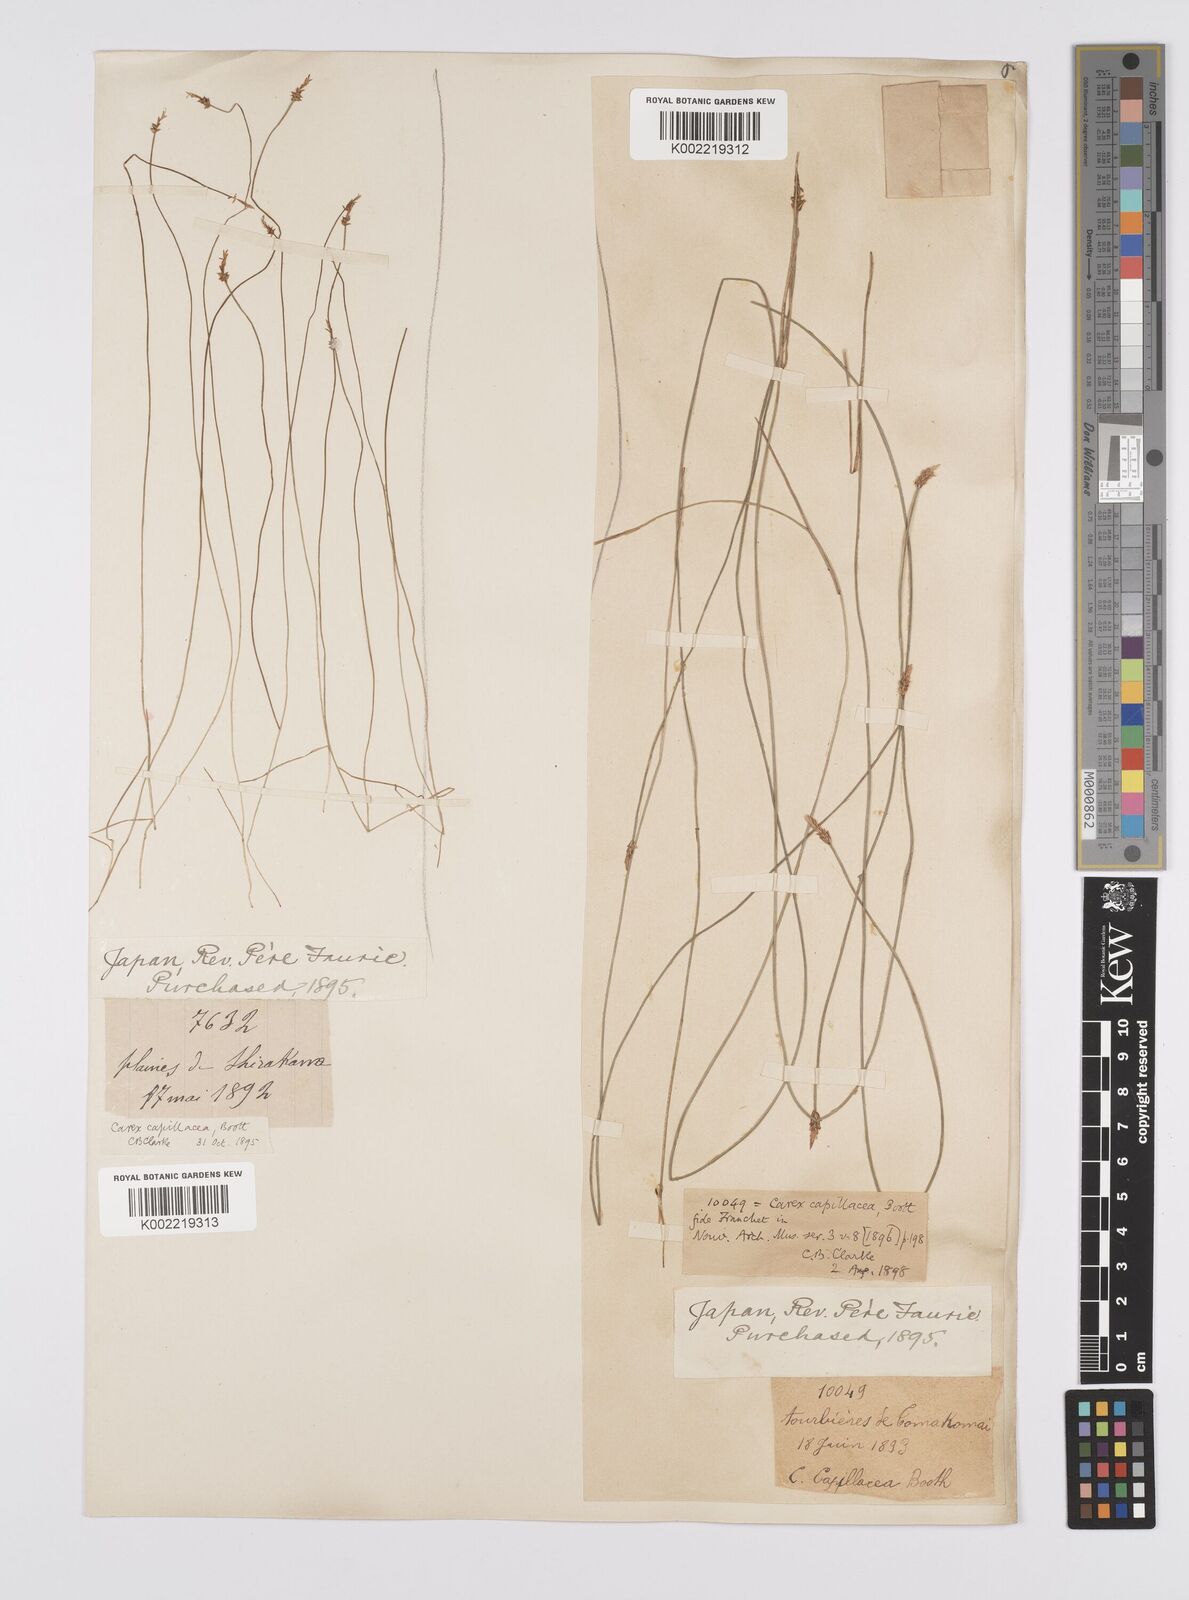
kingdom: Plantae
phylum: Tracheophyta
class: Liliopsida
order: Poales
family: Cyperaceae
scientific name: Cyperaceae
